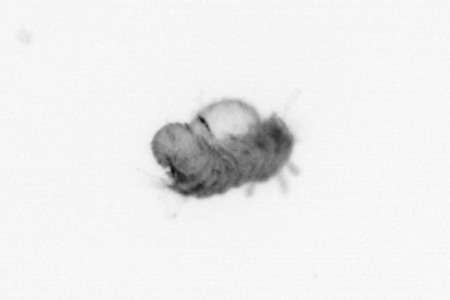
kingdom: Animalia
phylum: Annelida
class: Polychaeta
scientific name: Polychaeta
